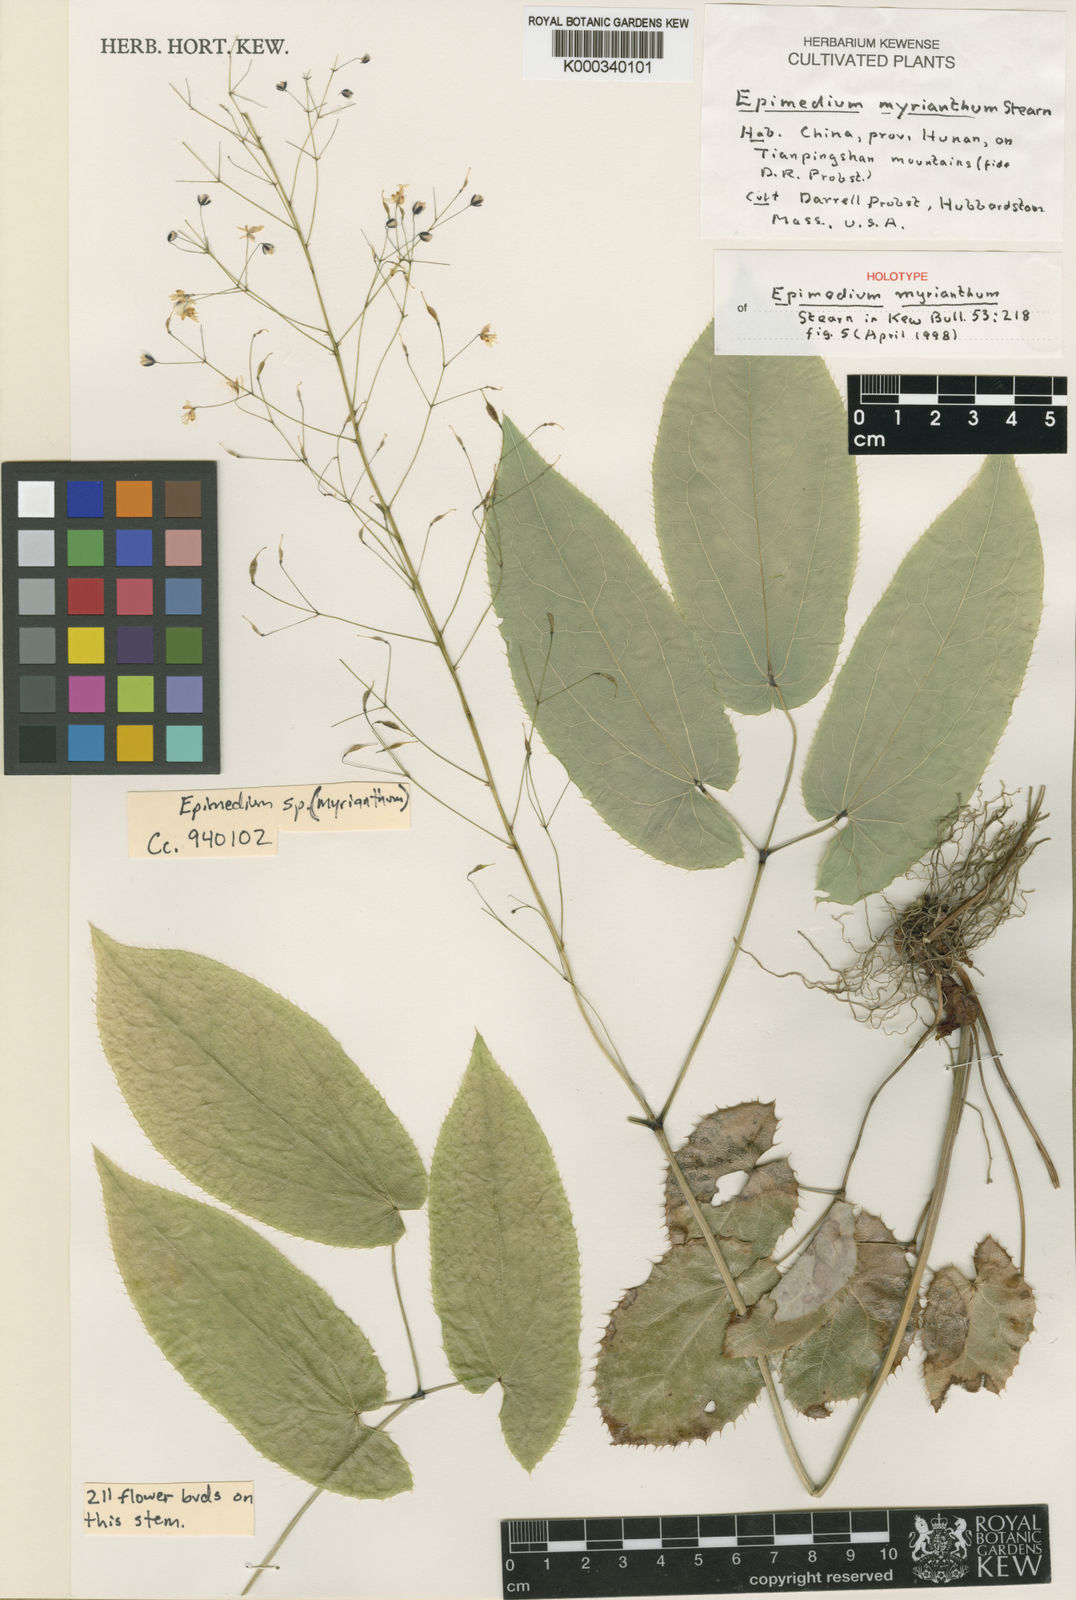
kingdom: Plantae
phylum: Tracheophyta
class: Magnoliopsida
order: Ranunculales
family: Berberidaceae
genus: Epimedium
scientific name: Epimedium myrianthum
